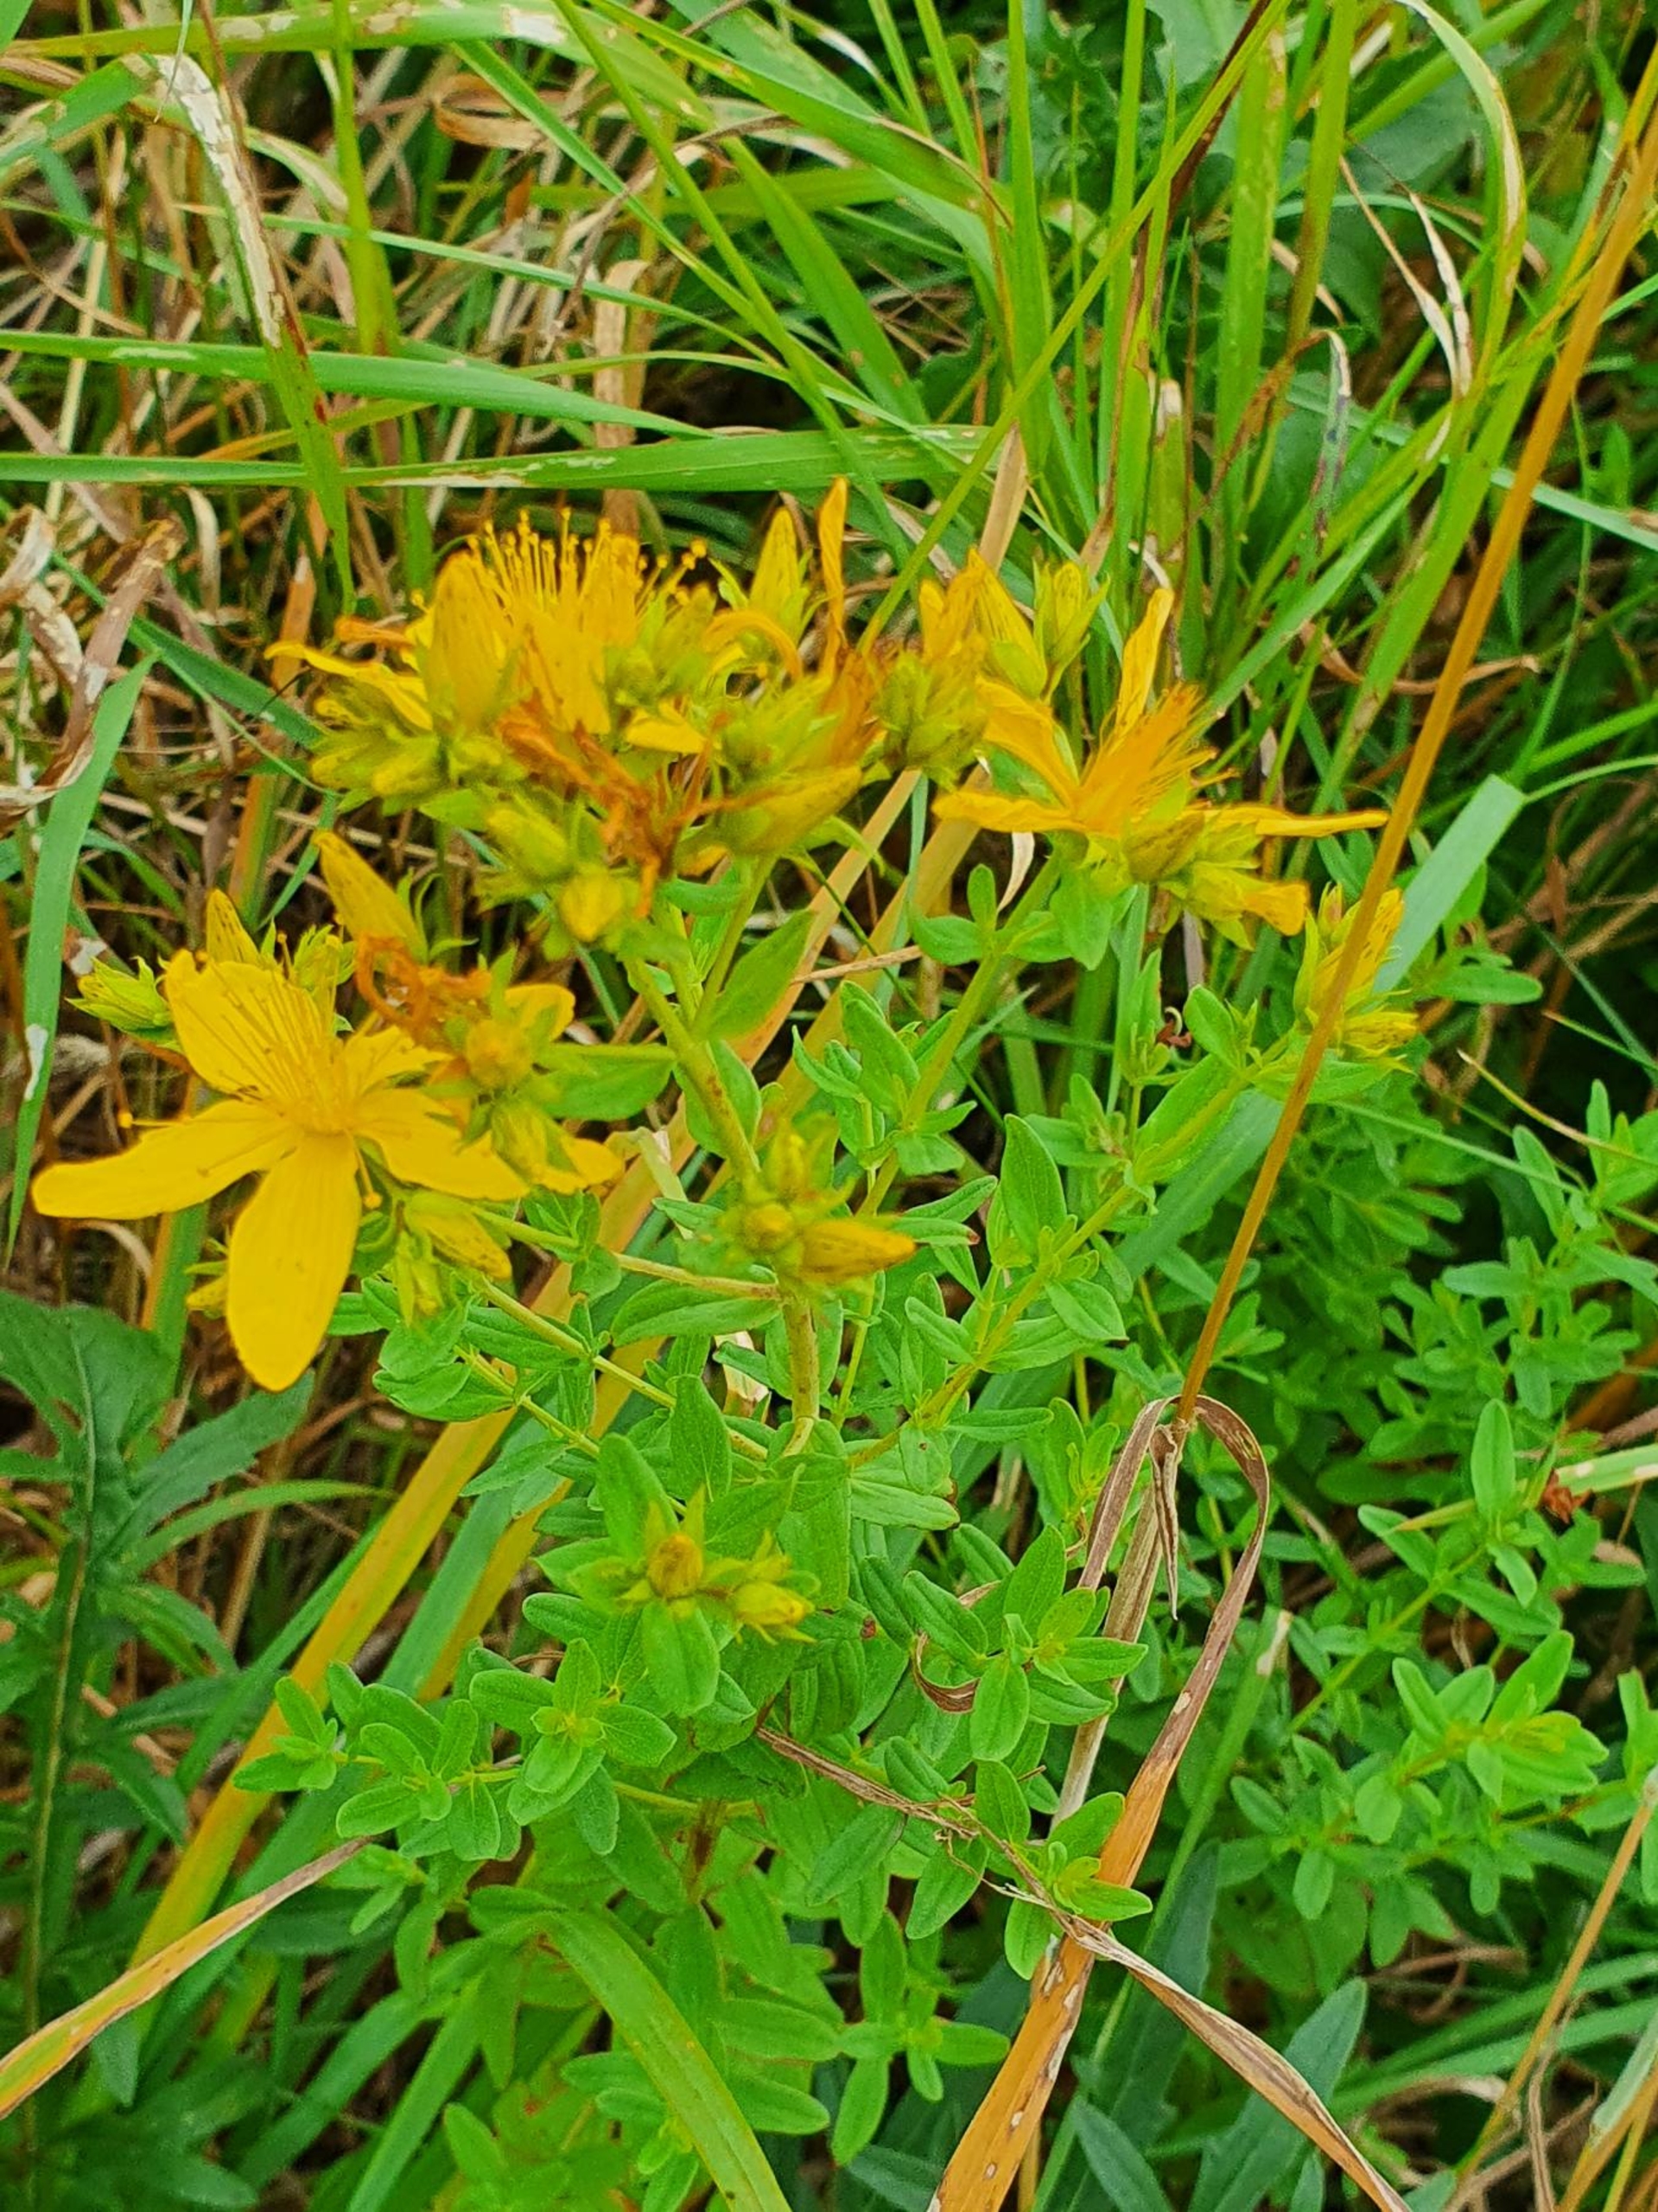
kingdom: Plantae
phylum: Tracheophyta
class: Magnoliopsida
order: Malpighiales
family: Hypericaceae
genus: Hypericum
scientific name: Hypericum perforatum
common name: Prikbladet perikon
